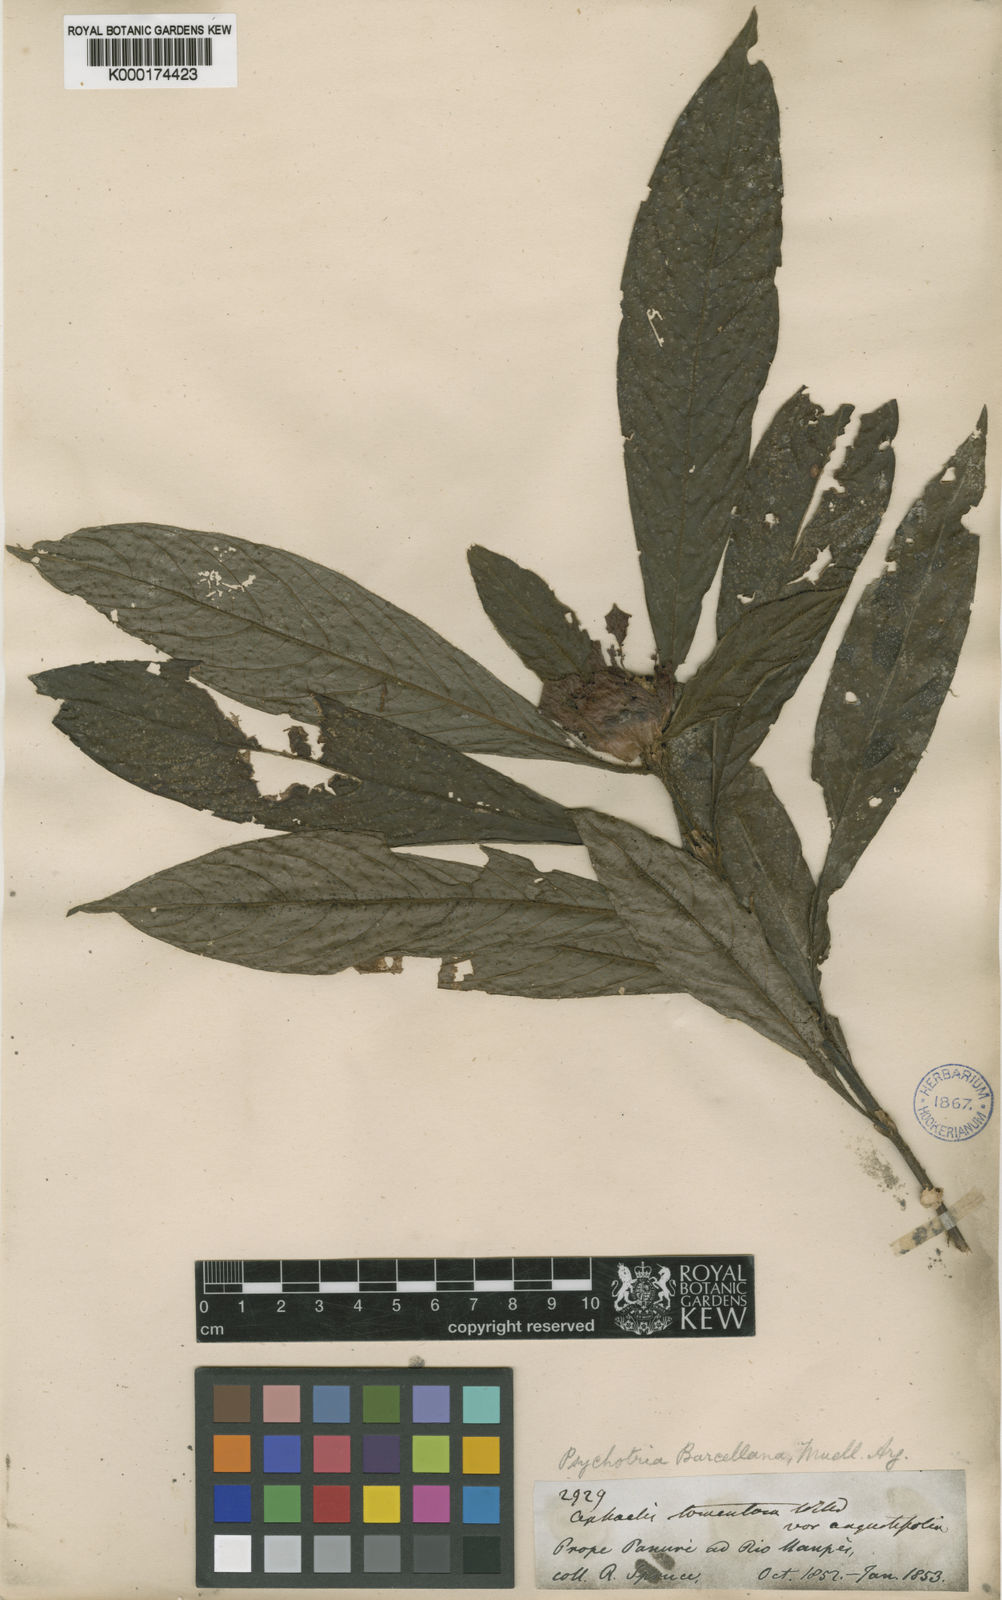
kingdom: Plantae
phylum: Tracheophyta
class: Magnoliopsida
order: Gentianales
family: Rubiaceae
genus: Psychotria
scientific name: Psychotria
